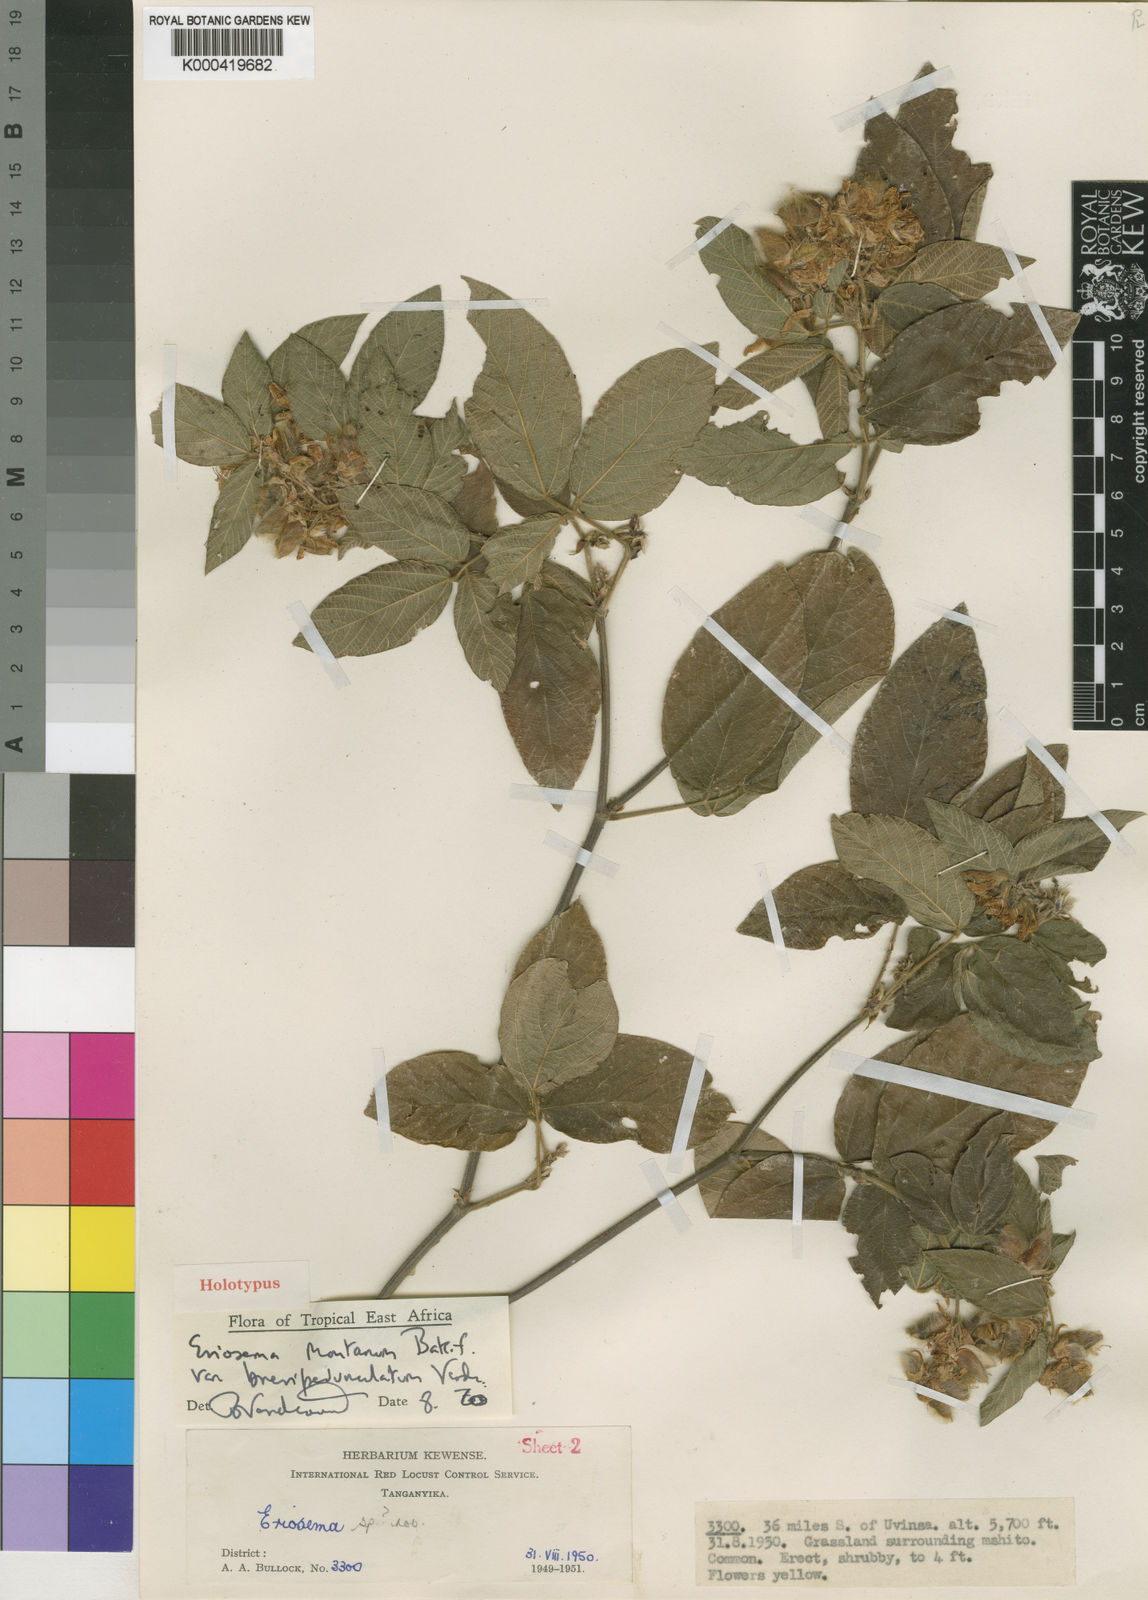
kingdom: Plantae
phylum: Tracheophyta
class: Magnoliopsida
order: Fabales
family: Fabaceae
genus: Eriosema
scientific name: Eriosema montanum
